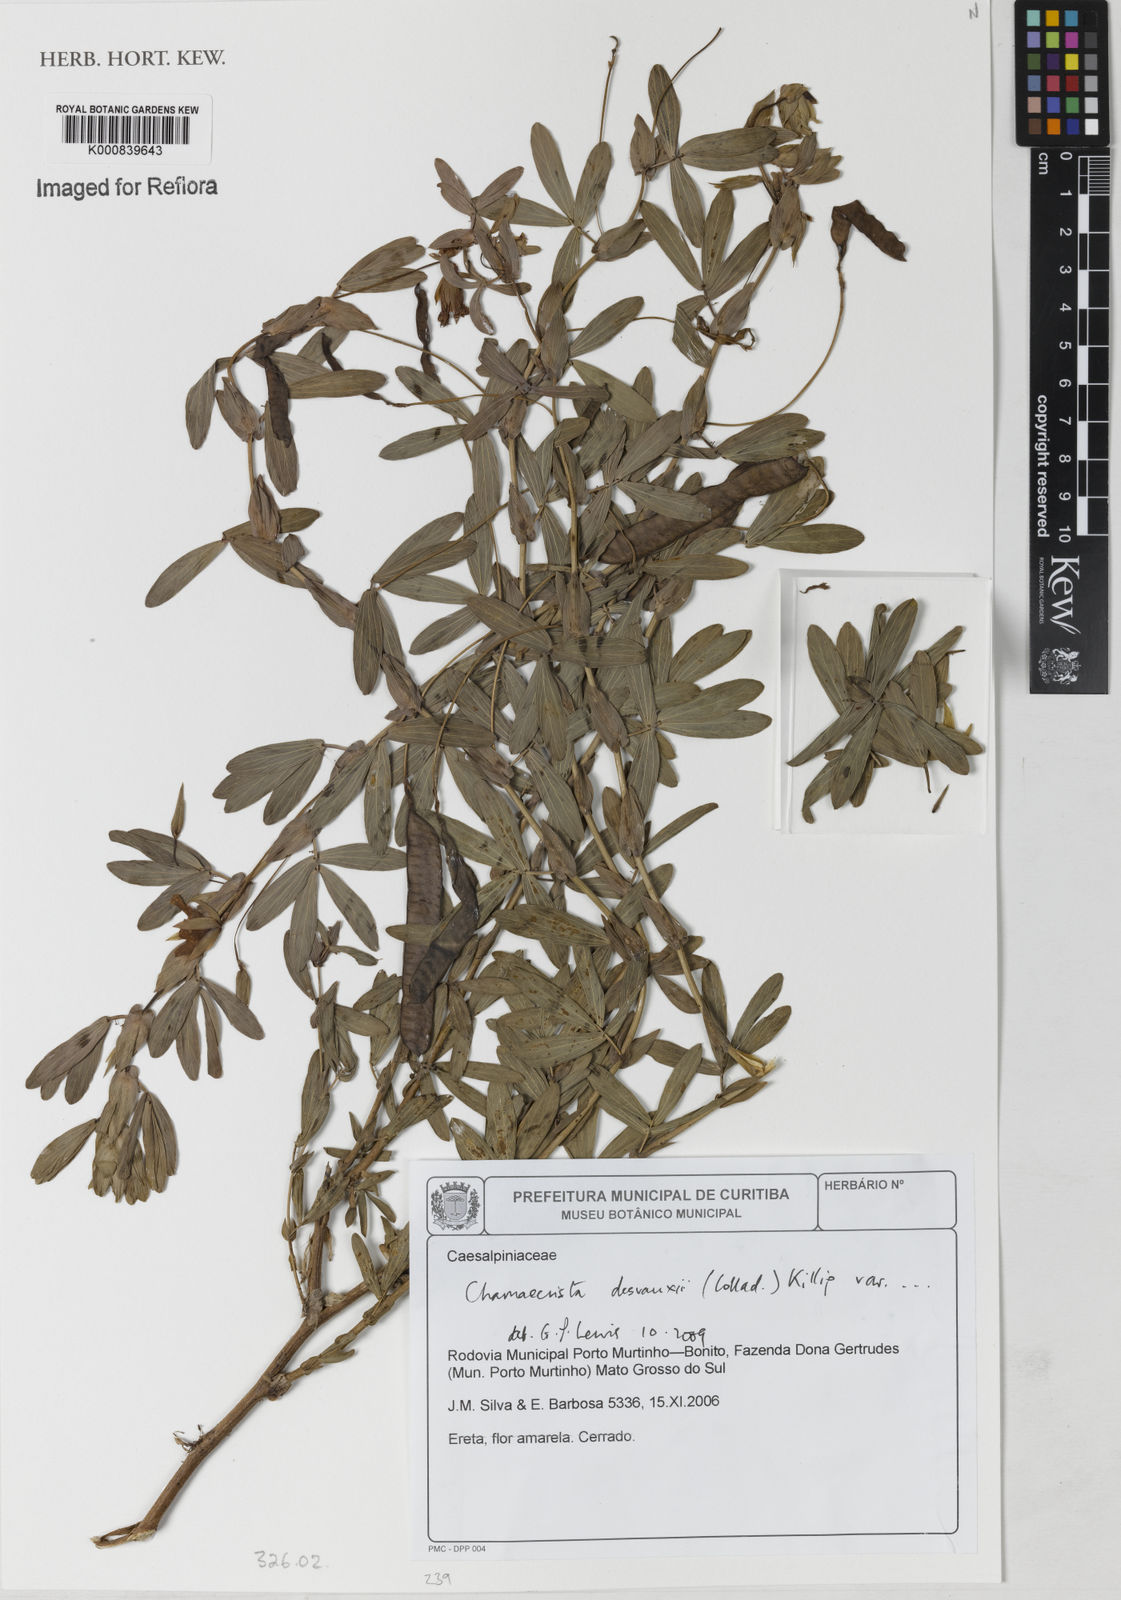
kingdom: Plantae
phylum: Tracheophyta
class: Magnoliopsida
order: Fabales
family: Fabaceae
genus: Chamaecrista
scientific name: Chamaecrista desvauxii
